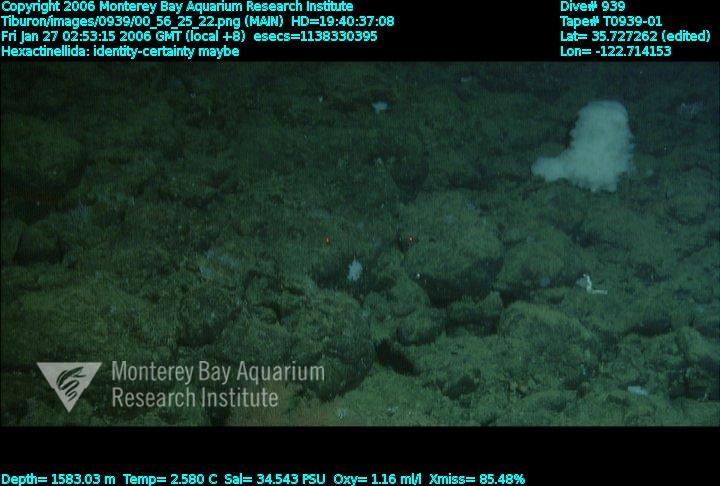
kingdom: Animalia
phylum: Porifera
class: Hexactinellida
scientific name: Hexactinellida
